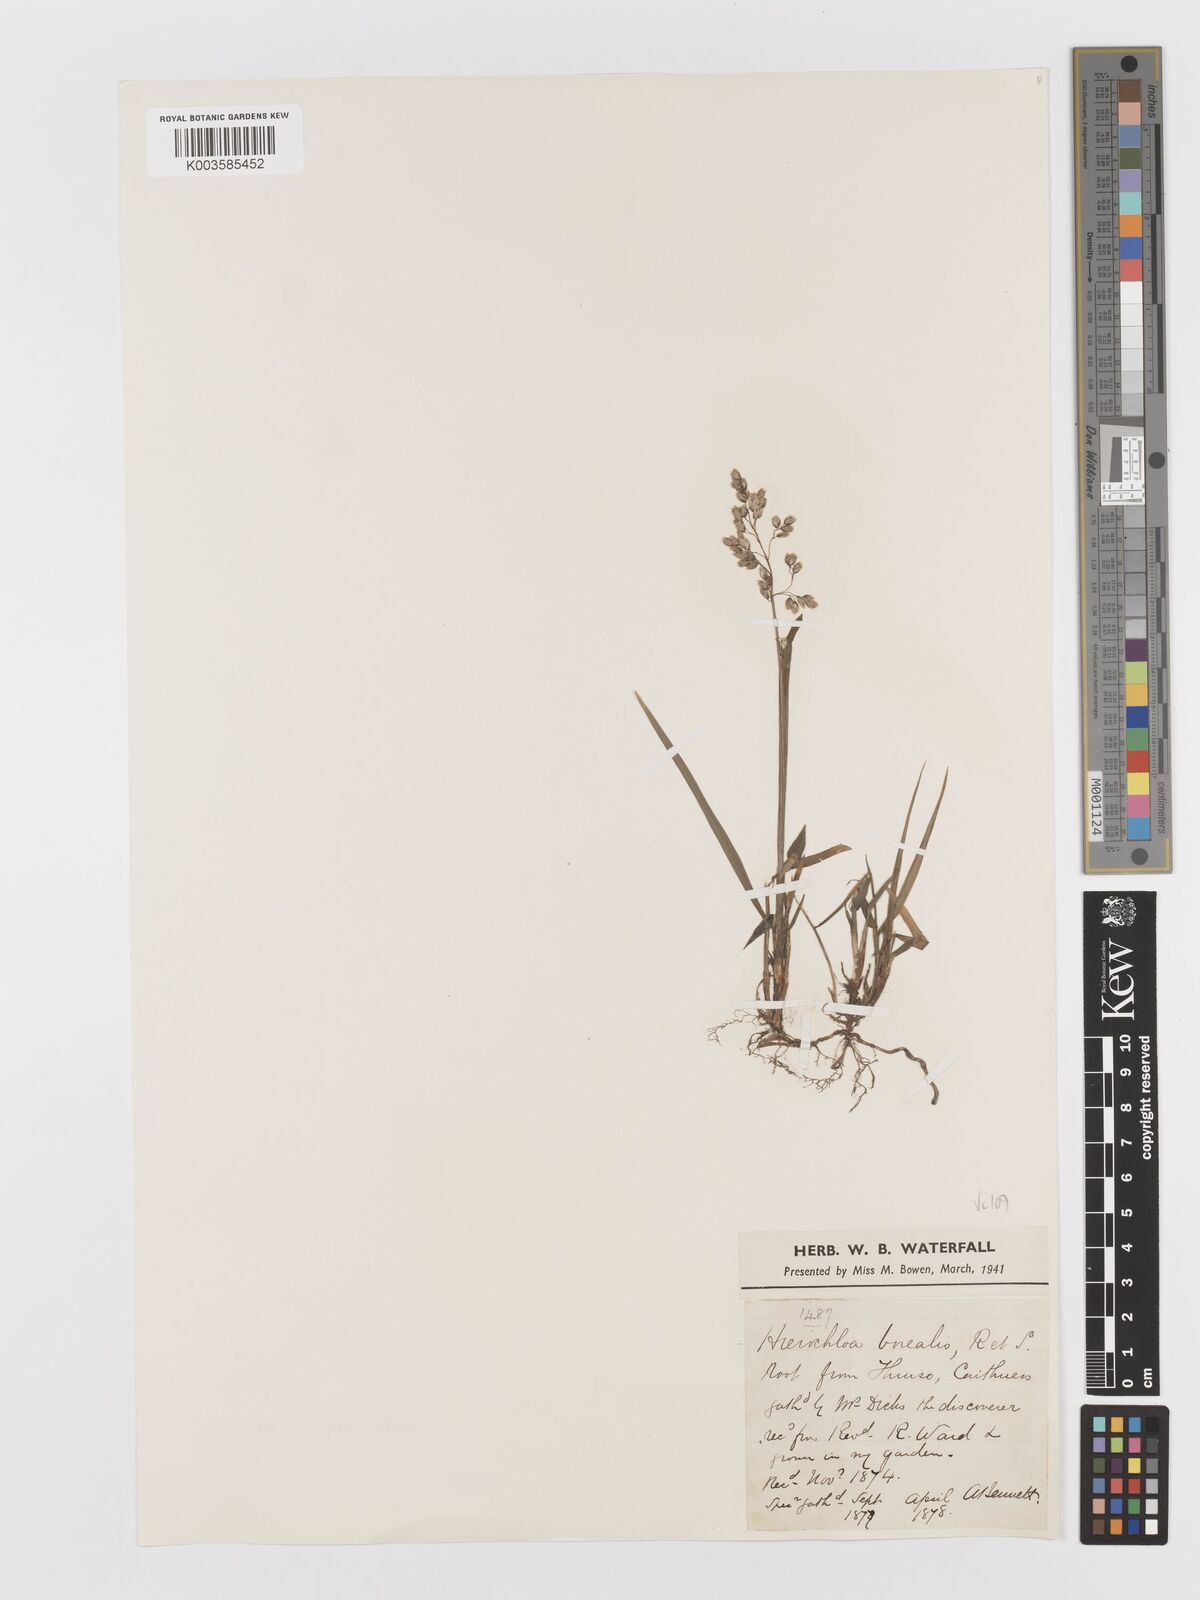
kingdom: Plantae
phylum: Tracheophyta
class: Liliopsida
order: Poales
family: Poaceae
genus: Anthoxanthum
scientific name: Anthoxanthum nitens
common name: Holy grass
